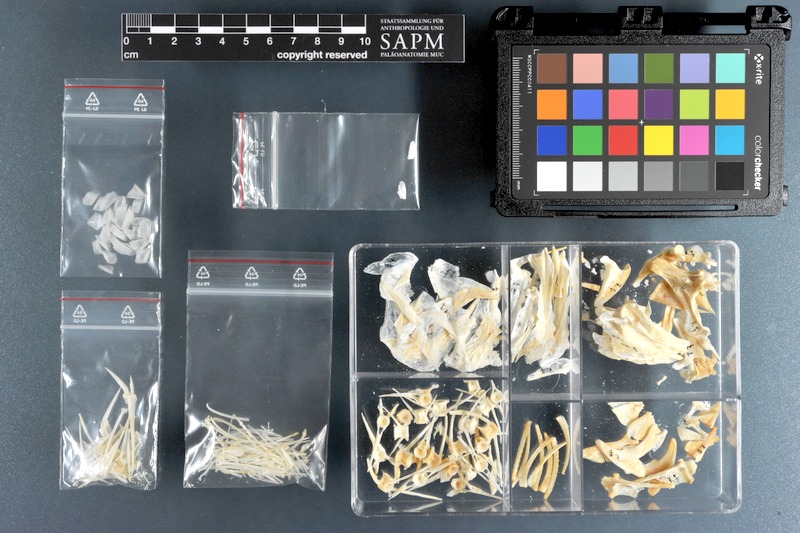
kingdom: Animalia
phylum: Chordata
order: Perciformes
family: Sparidae
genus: Lithognathus
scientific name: Lithognathus mormyrus
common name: Sand steenbras
